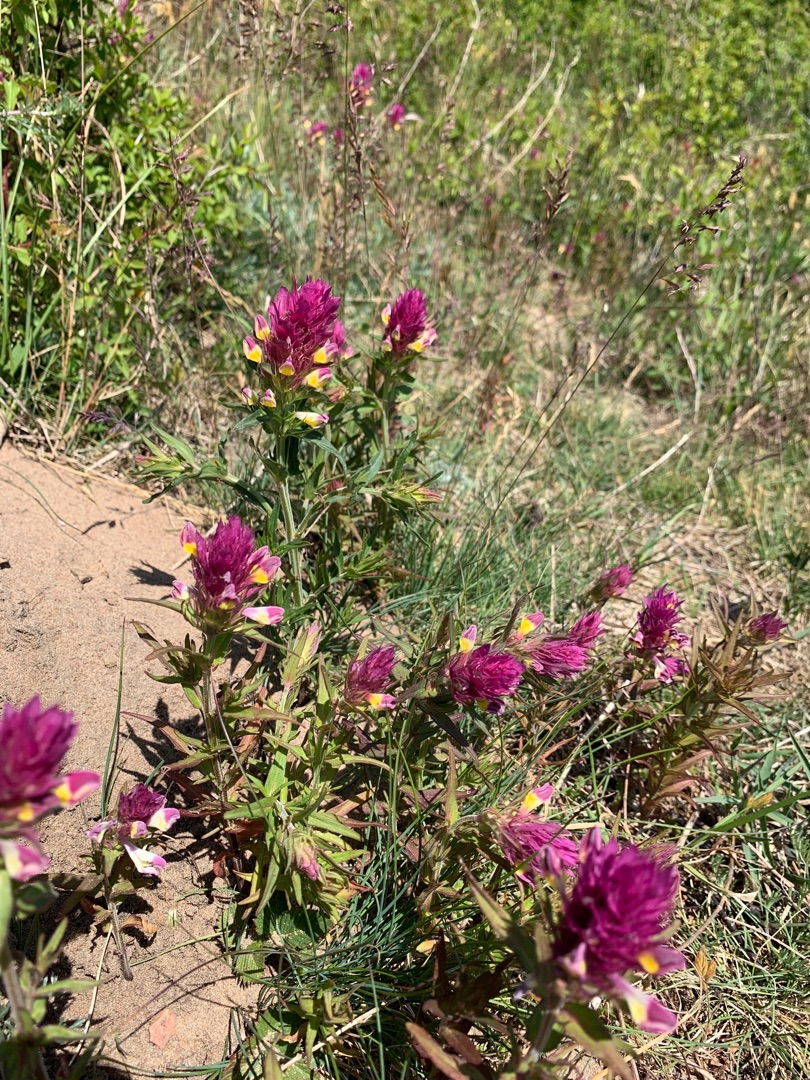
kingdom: Plantae
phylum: Tracheophyta
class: Magnoliopsida
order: Lamiales
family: Orobanchaceae
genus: Melampyrum
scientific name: Melampyrum arvense
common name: Ager-kohvede
